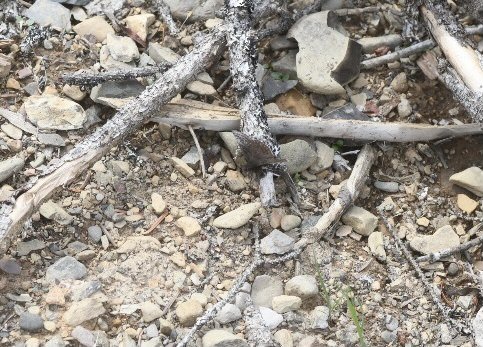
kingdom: Animalia
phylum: Arthropoda
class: Insecta
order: Lepidoptera
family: Hesperiidae
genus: Erynnis
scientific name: Erynnis icelus
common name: Dreamy Duskywing
